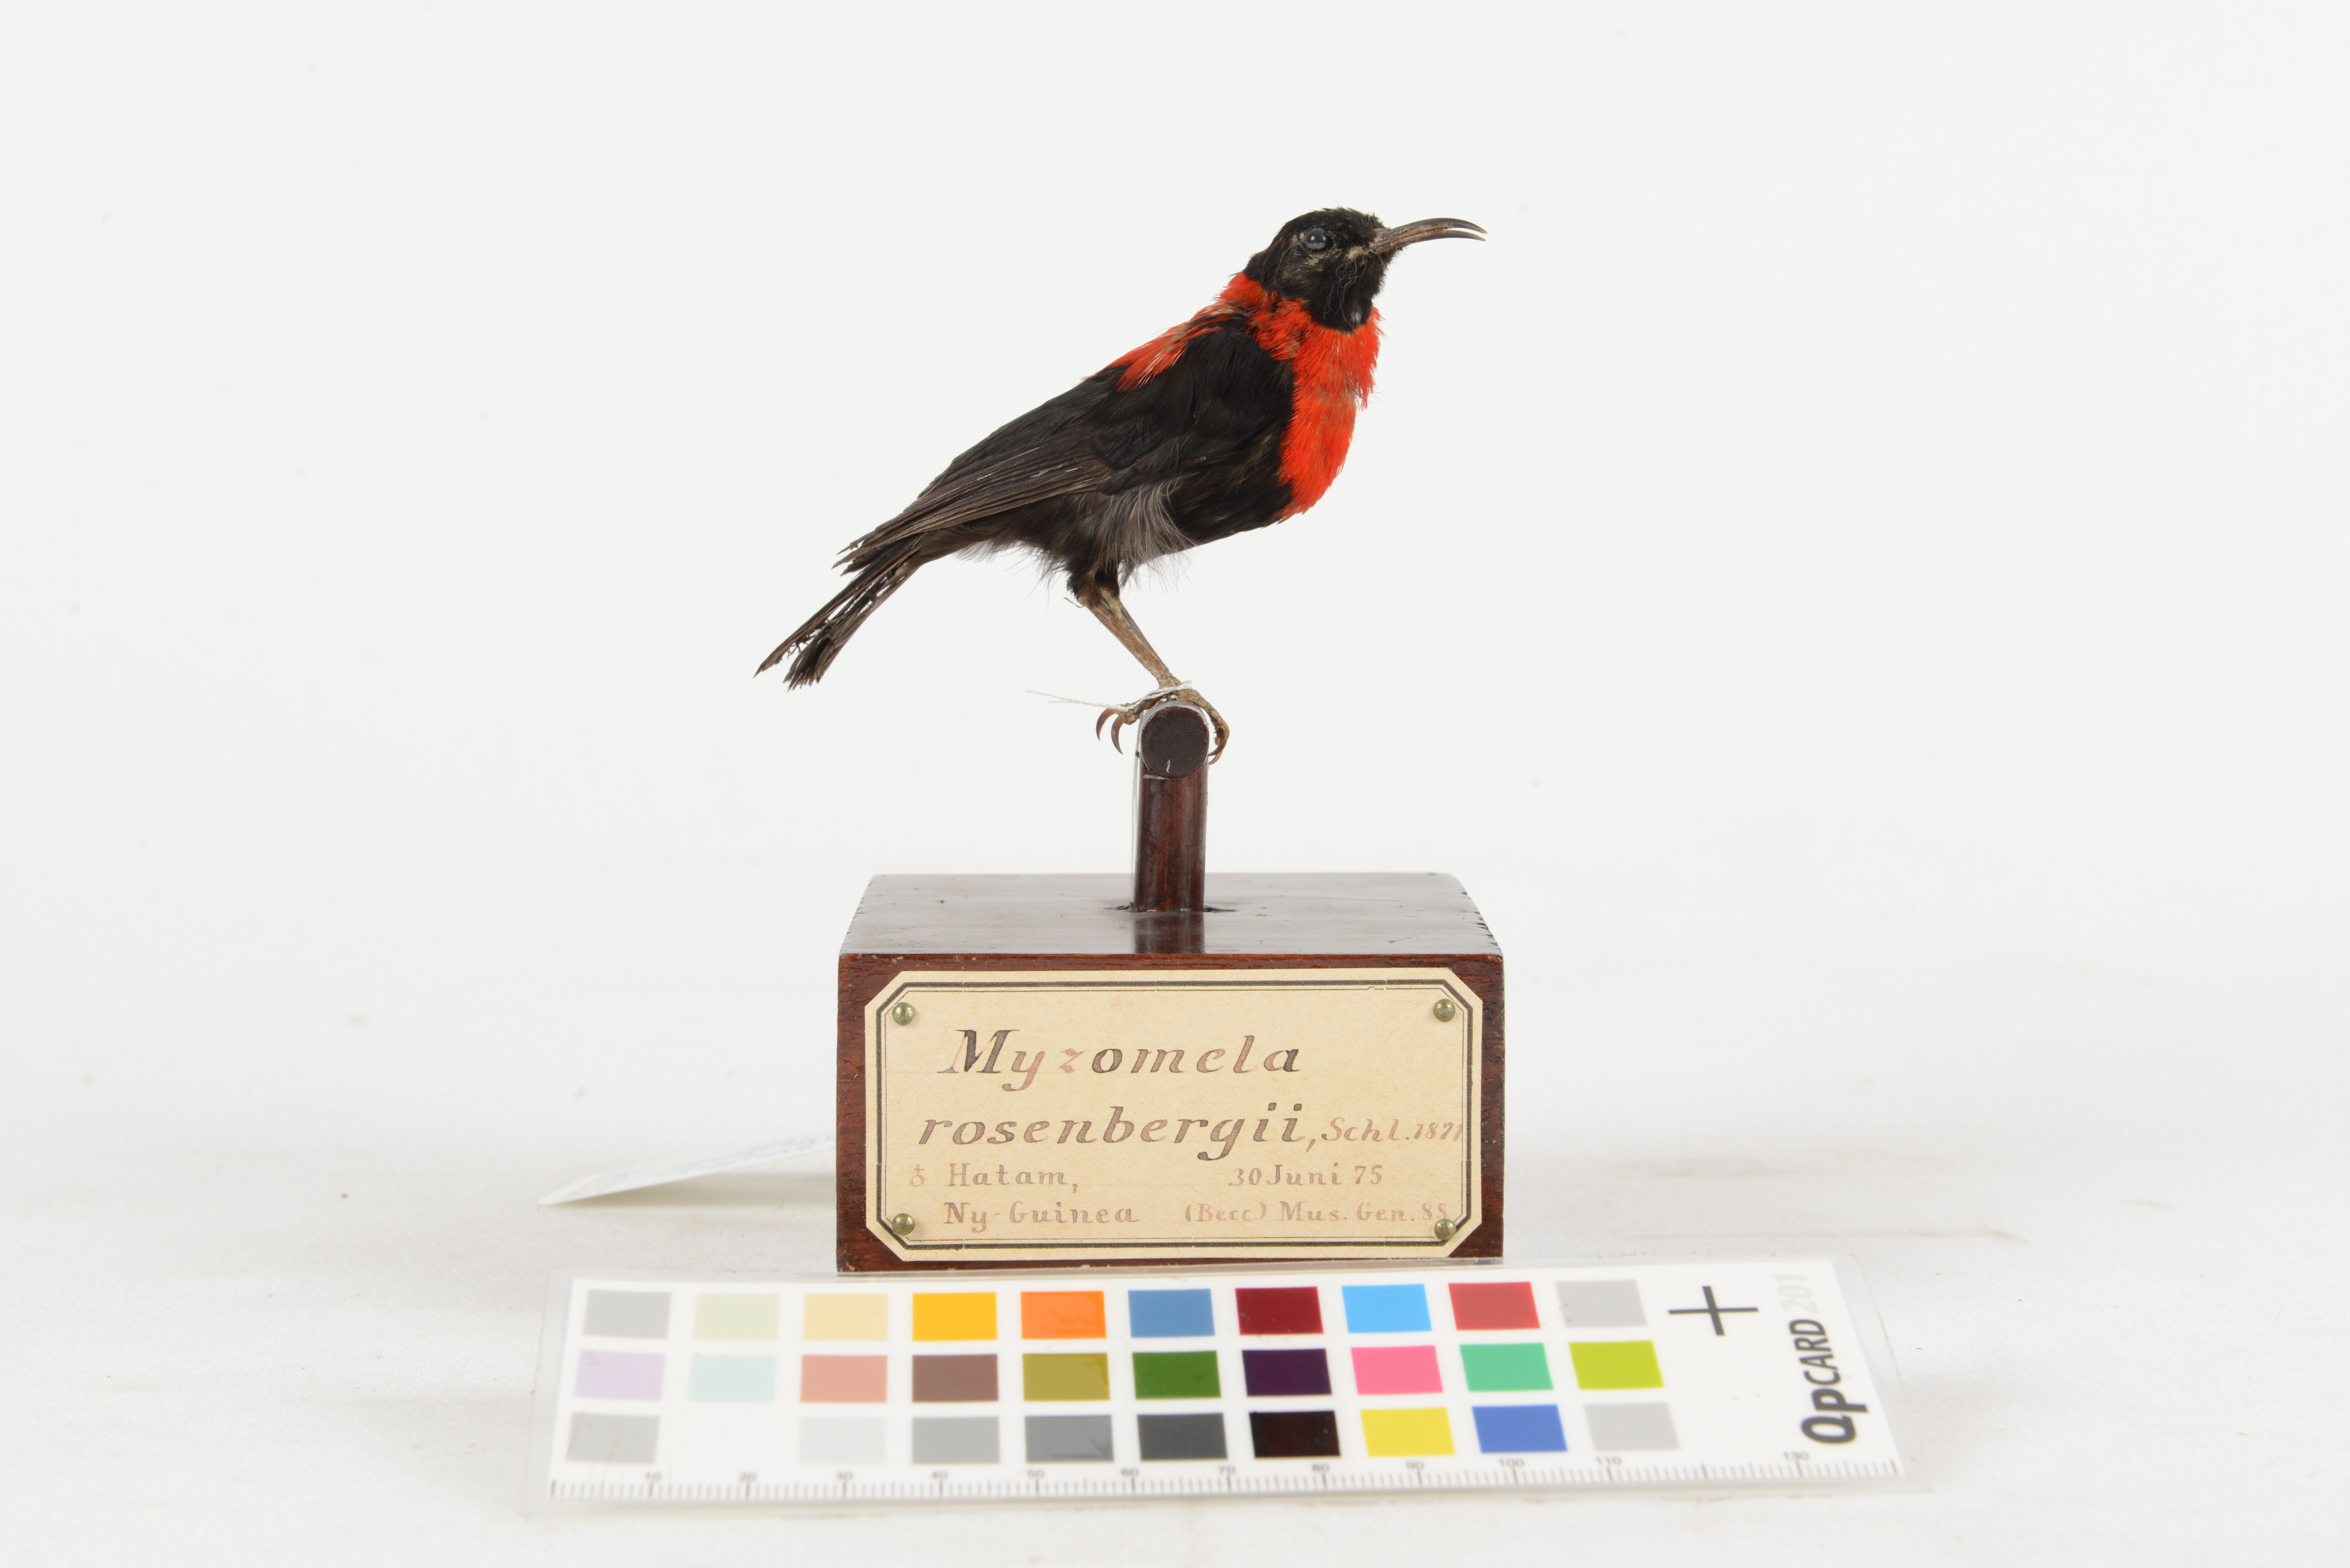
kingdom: Animalia
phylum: Chordata
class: Aves
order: Passeriformes
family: Meliphagidae
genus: Myzomela
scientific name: Myzomela rosenbergii
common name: Red-collared myzomela
